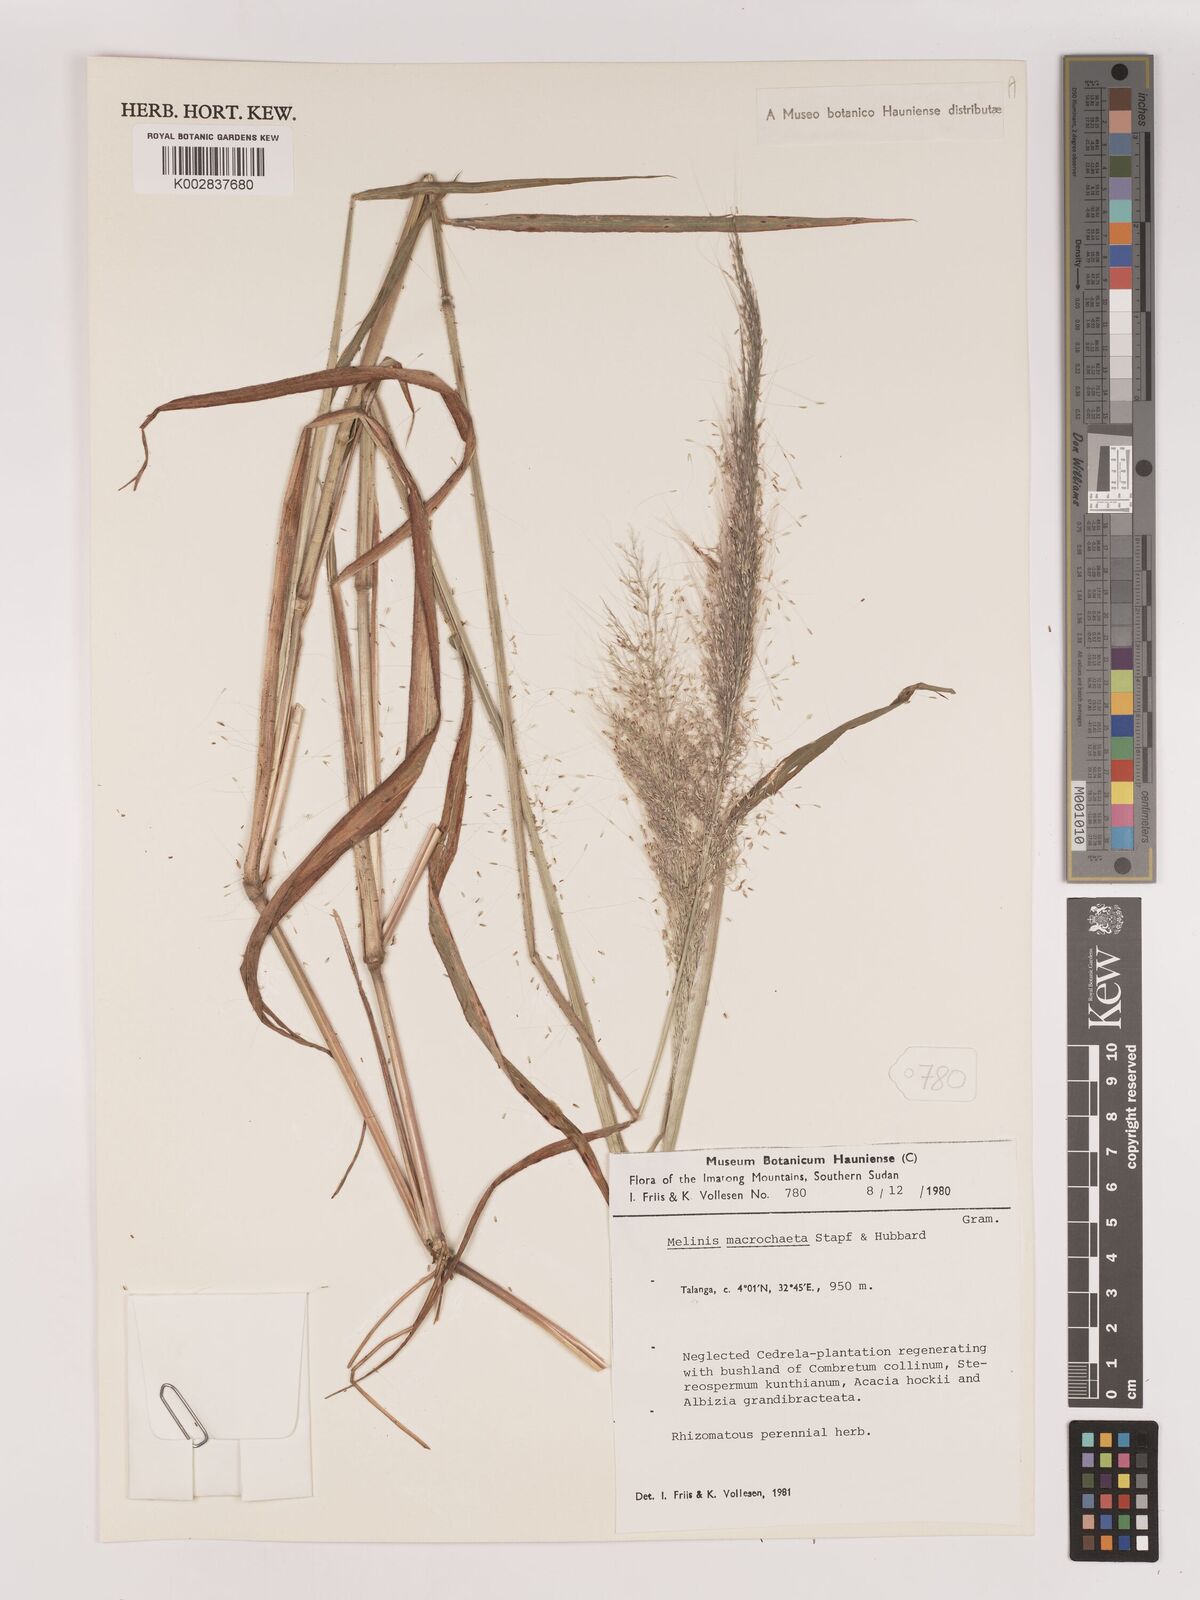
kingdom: Plantae
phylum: Tracheophyta
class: Liliopsida
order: Poales
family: Poaceae
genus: Melinis
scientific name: Melinis macrochaeta
